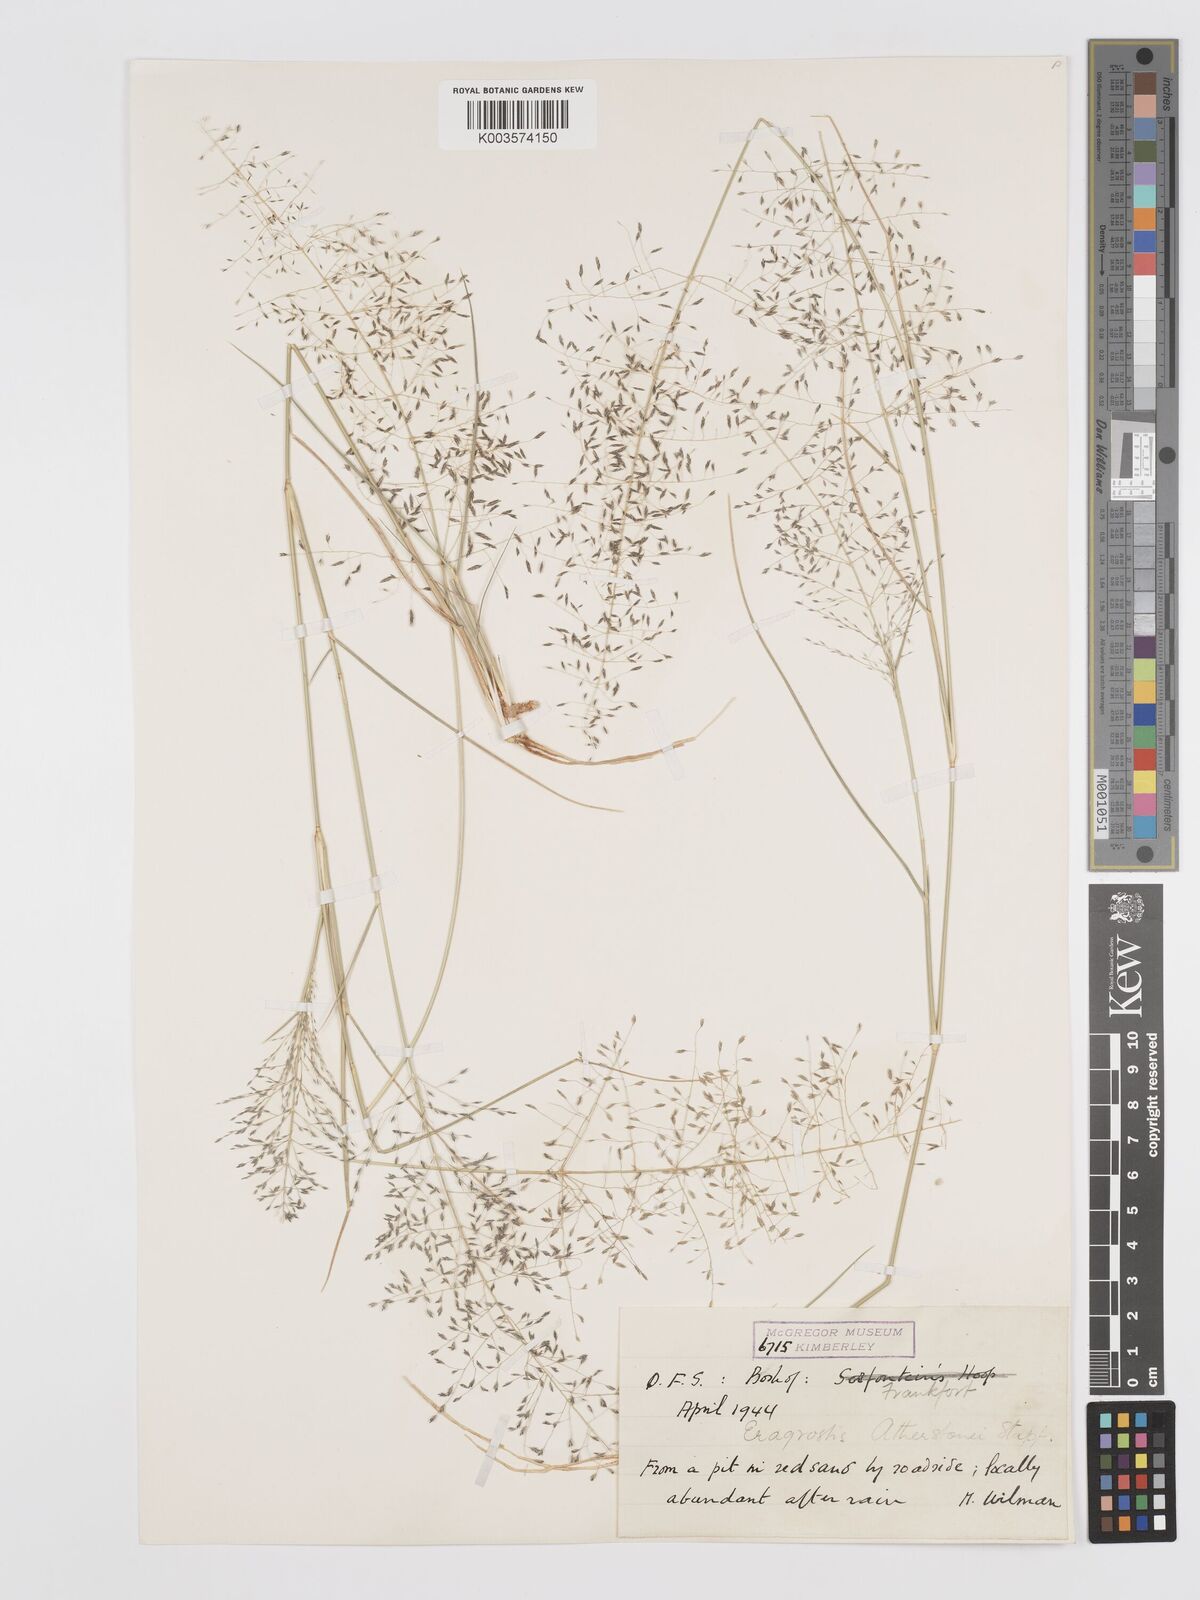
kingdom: Plantae
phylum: Tracheophyta
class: Liliopsida
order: Poales
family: Poaceae
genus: Eragrostis
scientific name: Eragrostis cylindriflora
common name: Cylinderflower lovegrass
